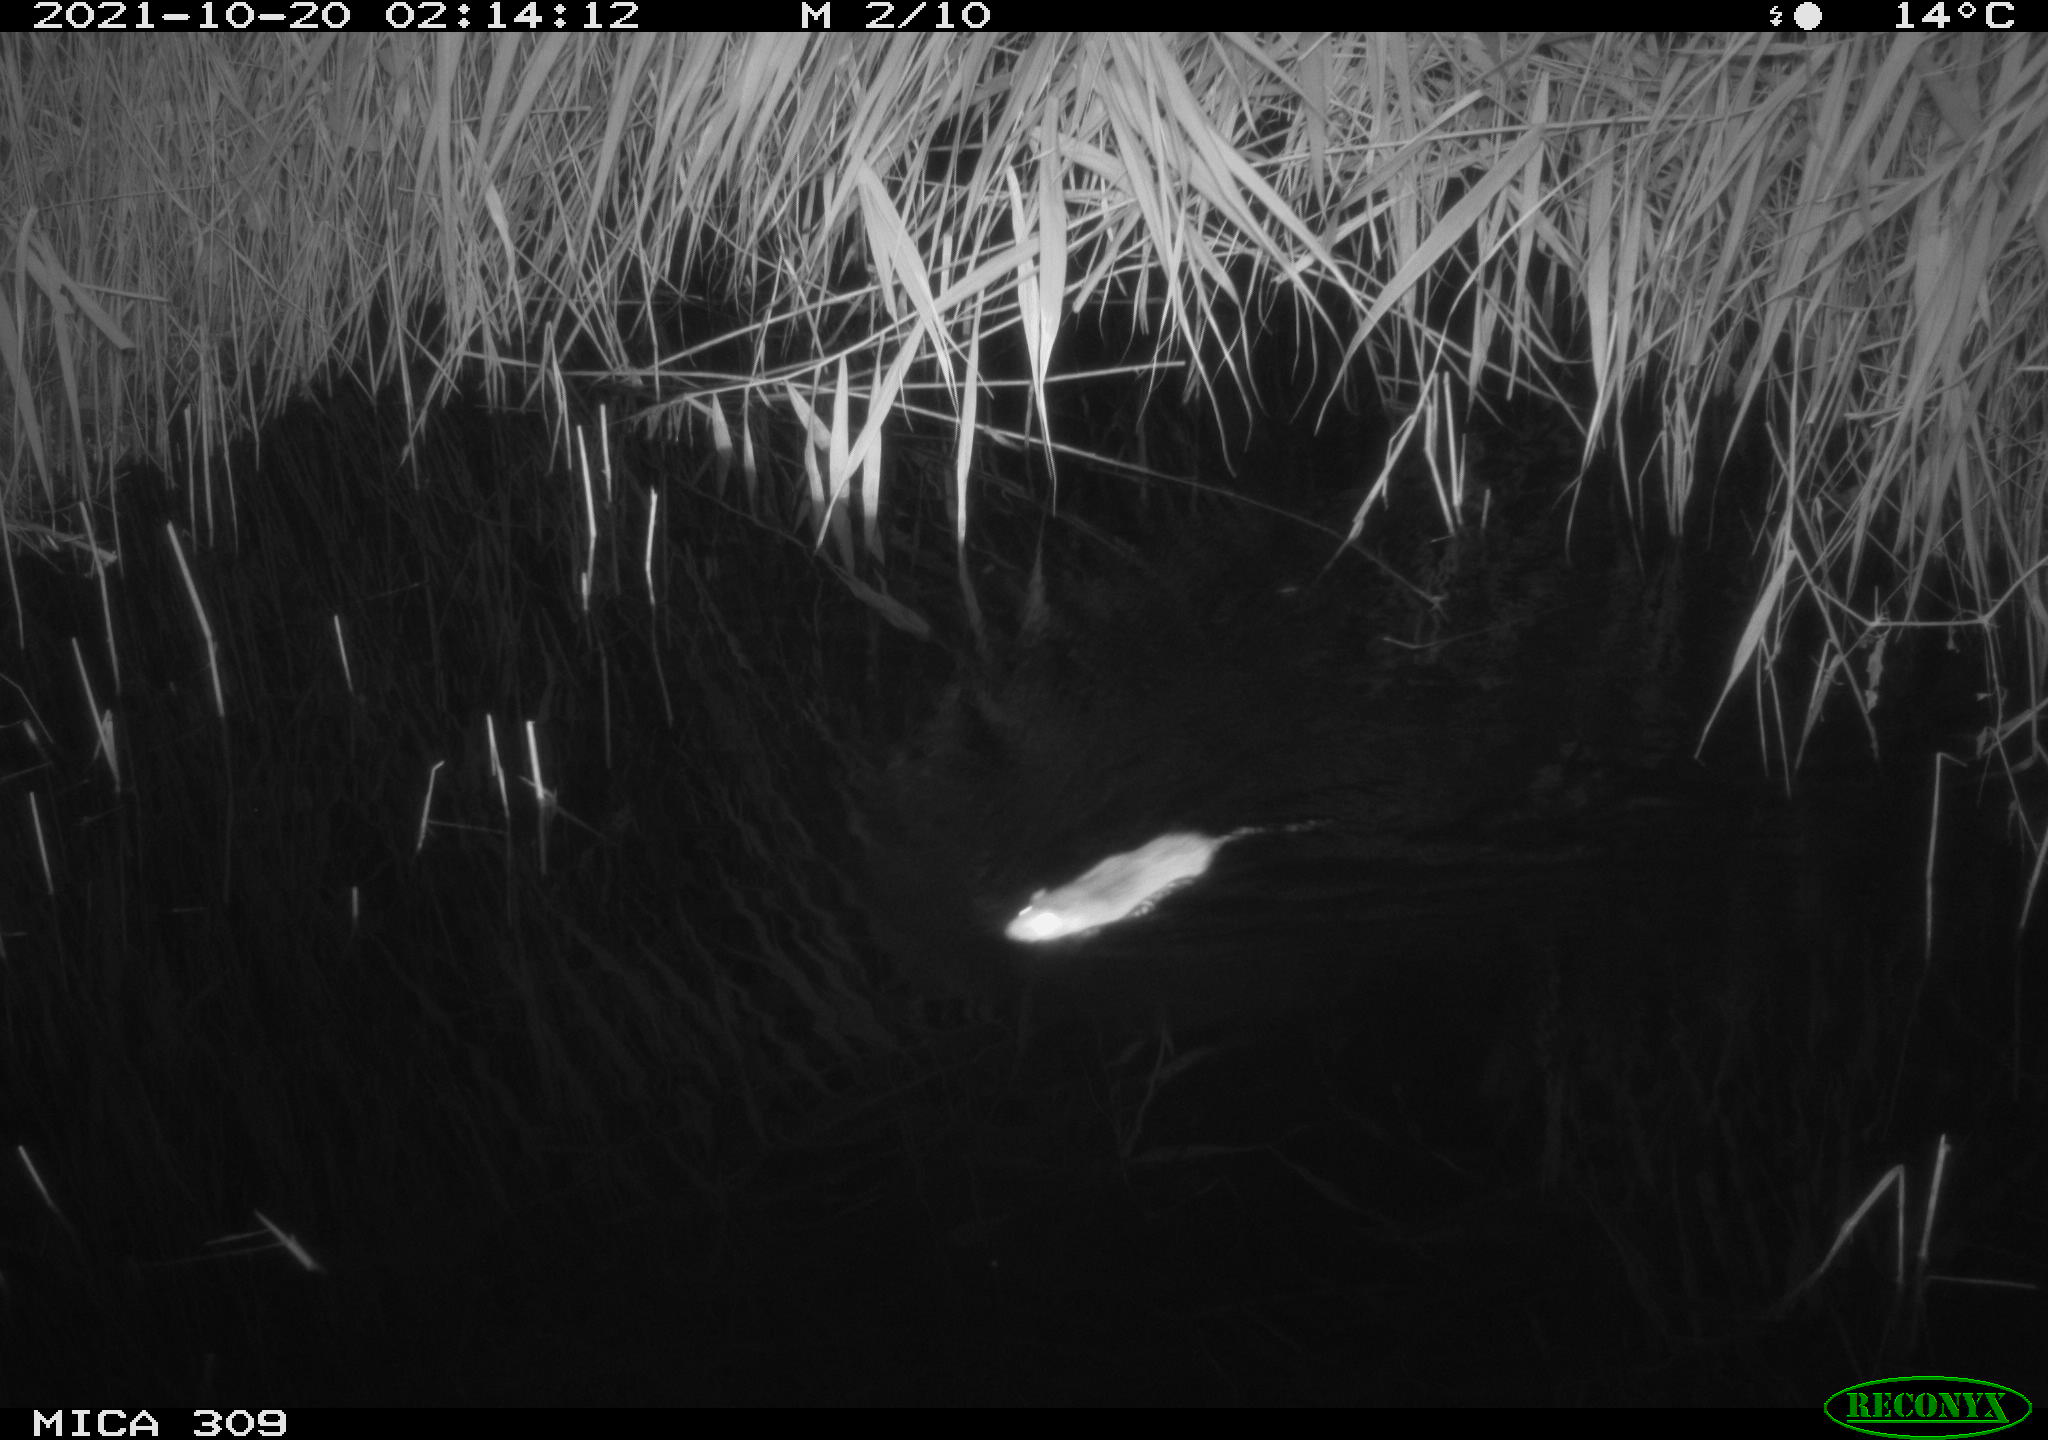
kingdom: Animalia
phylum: Chordata
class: Mammalia
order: Rodentia
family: Muridae
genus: Rattus
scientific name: Rattus norvegicus
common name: Brown rat
